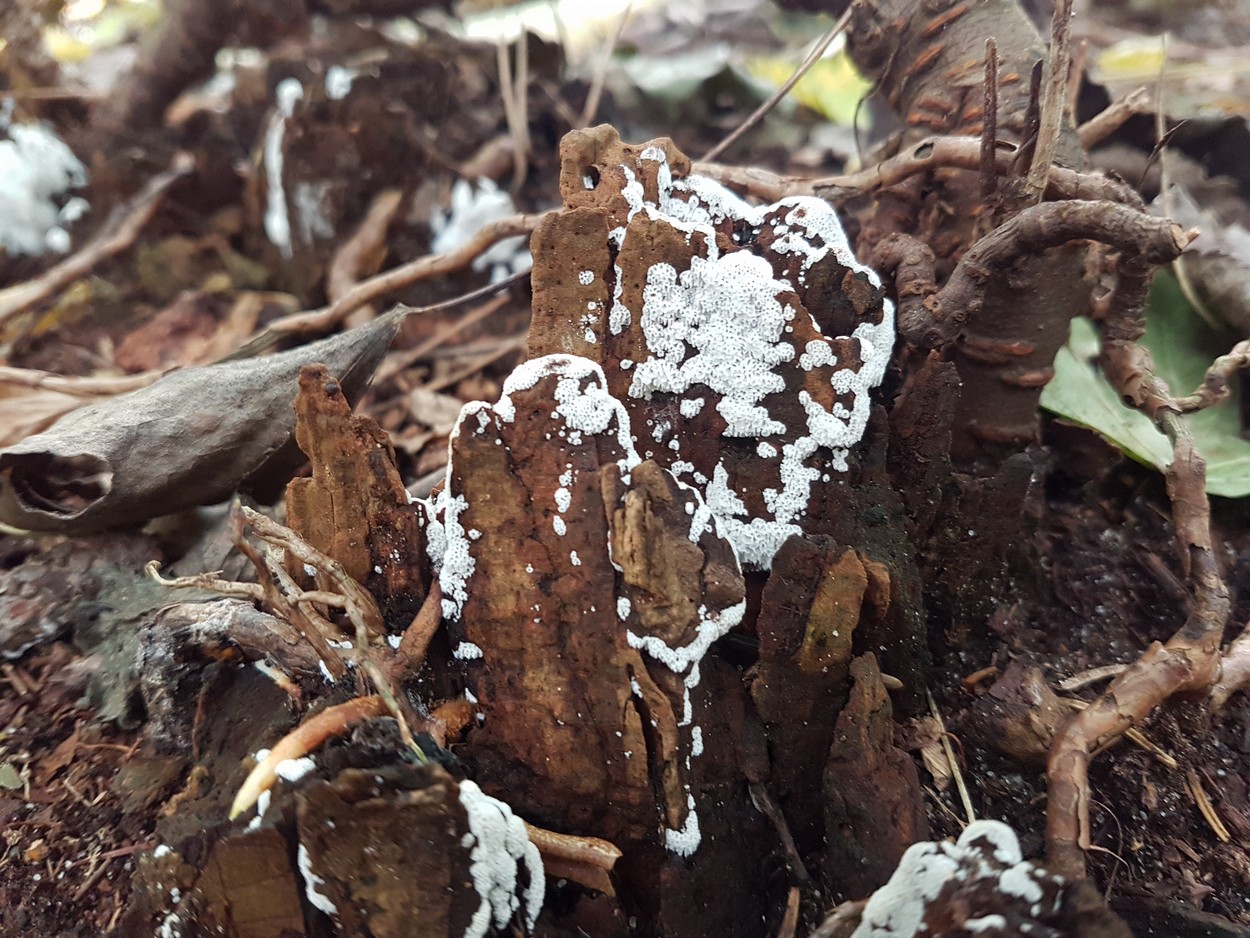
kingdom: Fungi
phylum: Basidiomycota
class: Agaricomycetes
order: Polyporales
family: Meruliaceae
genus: Physisporinus
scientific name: Physisporinus
